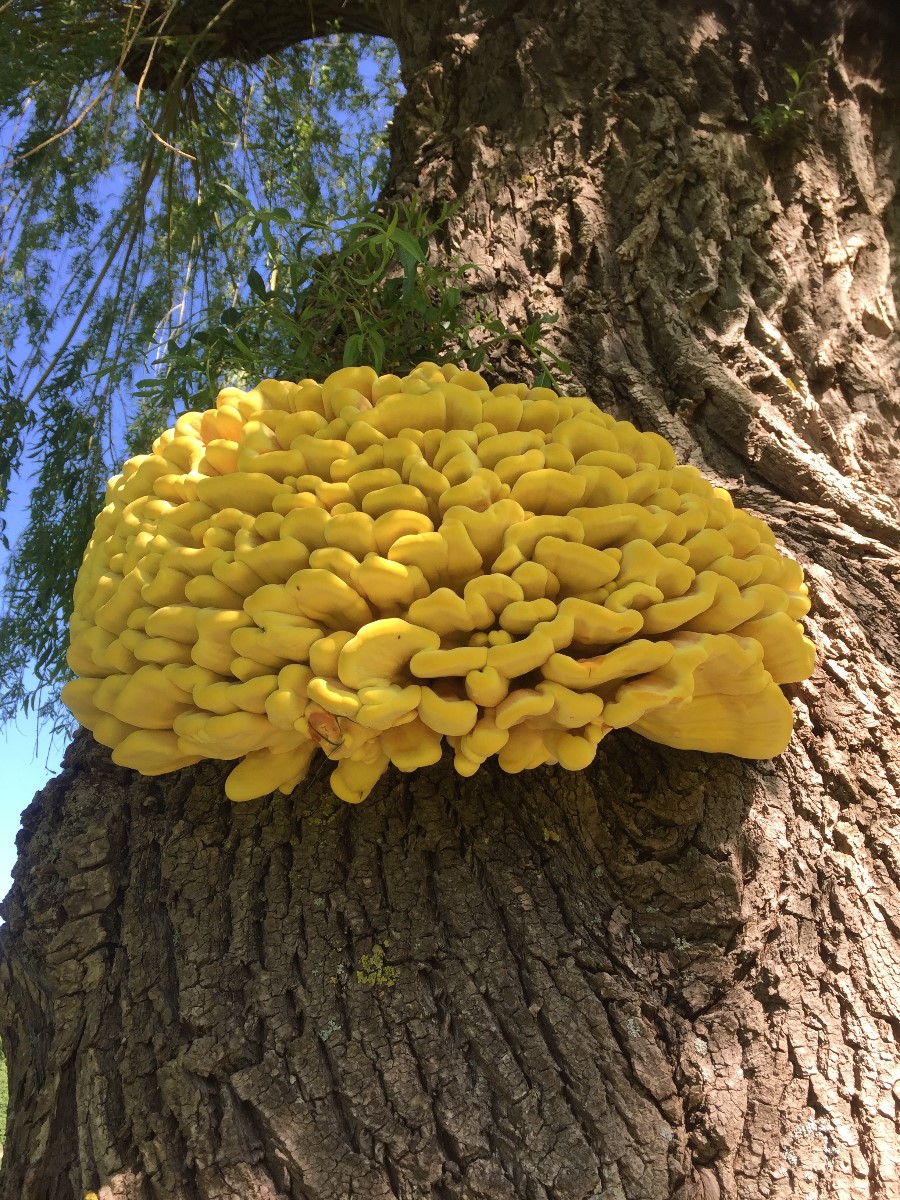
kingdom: Fungi
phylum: Basidiomycota
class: Agaricomycetes
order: Polyporales
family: Laetiporaceae
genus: Laetiporus
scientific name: Laetiporus
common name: svovlporesvamp
